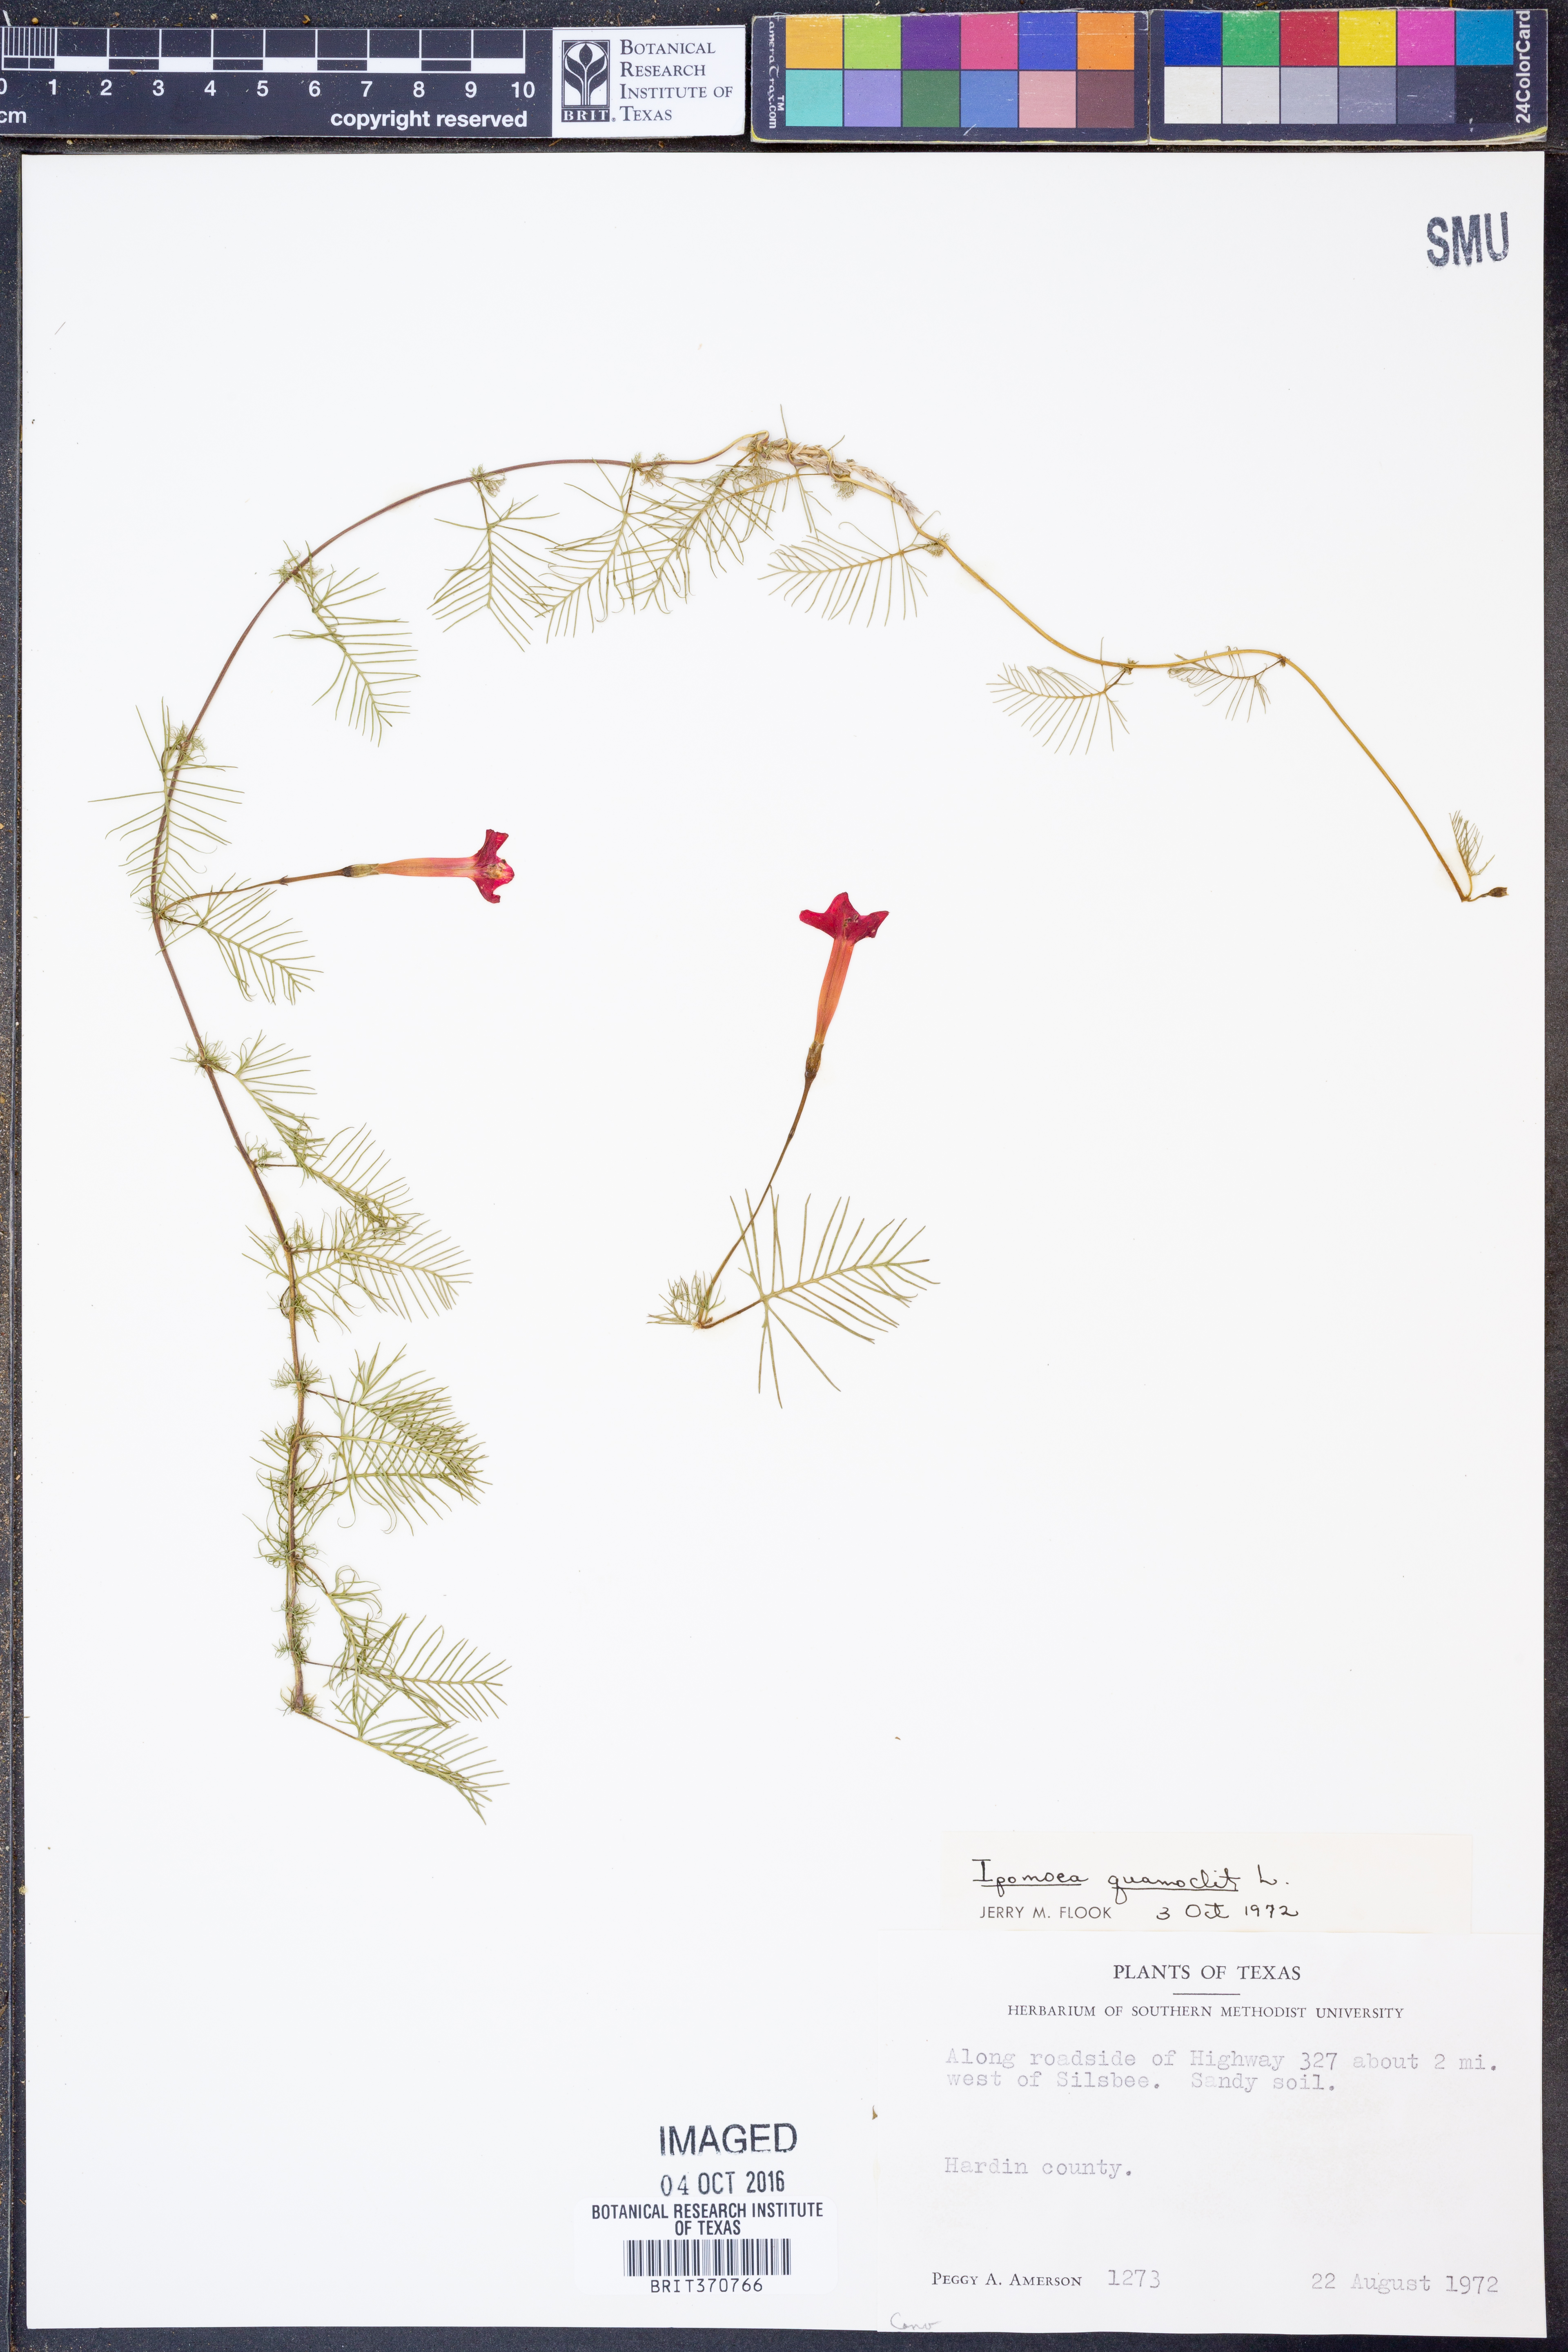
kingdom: Plantae
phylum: Tracheophyta
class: Magnoliopsida
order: Solanales
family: Convolvulaceae
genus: Ipomoea
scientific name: Ipomoea quamoclit
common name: Cypress vine
